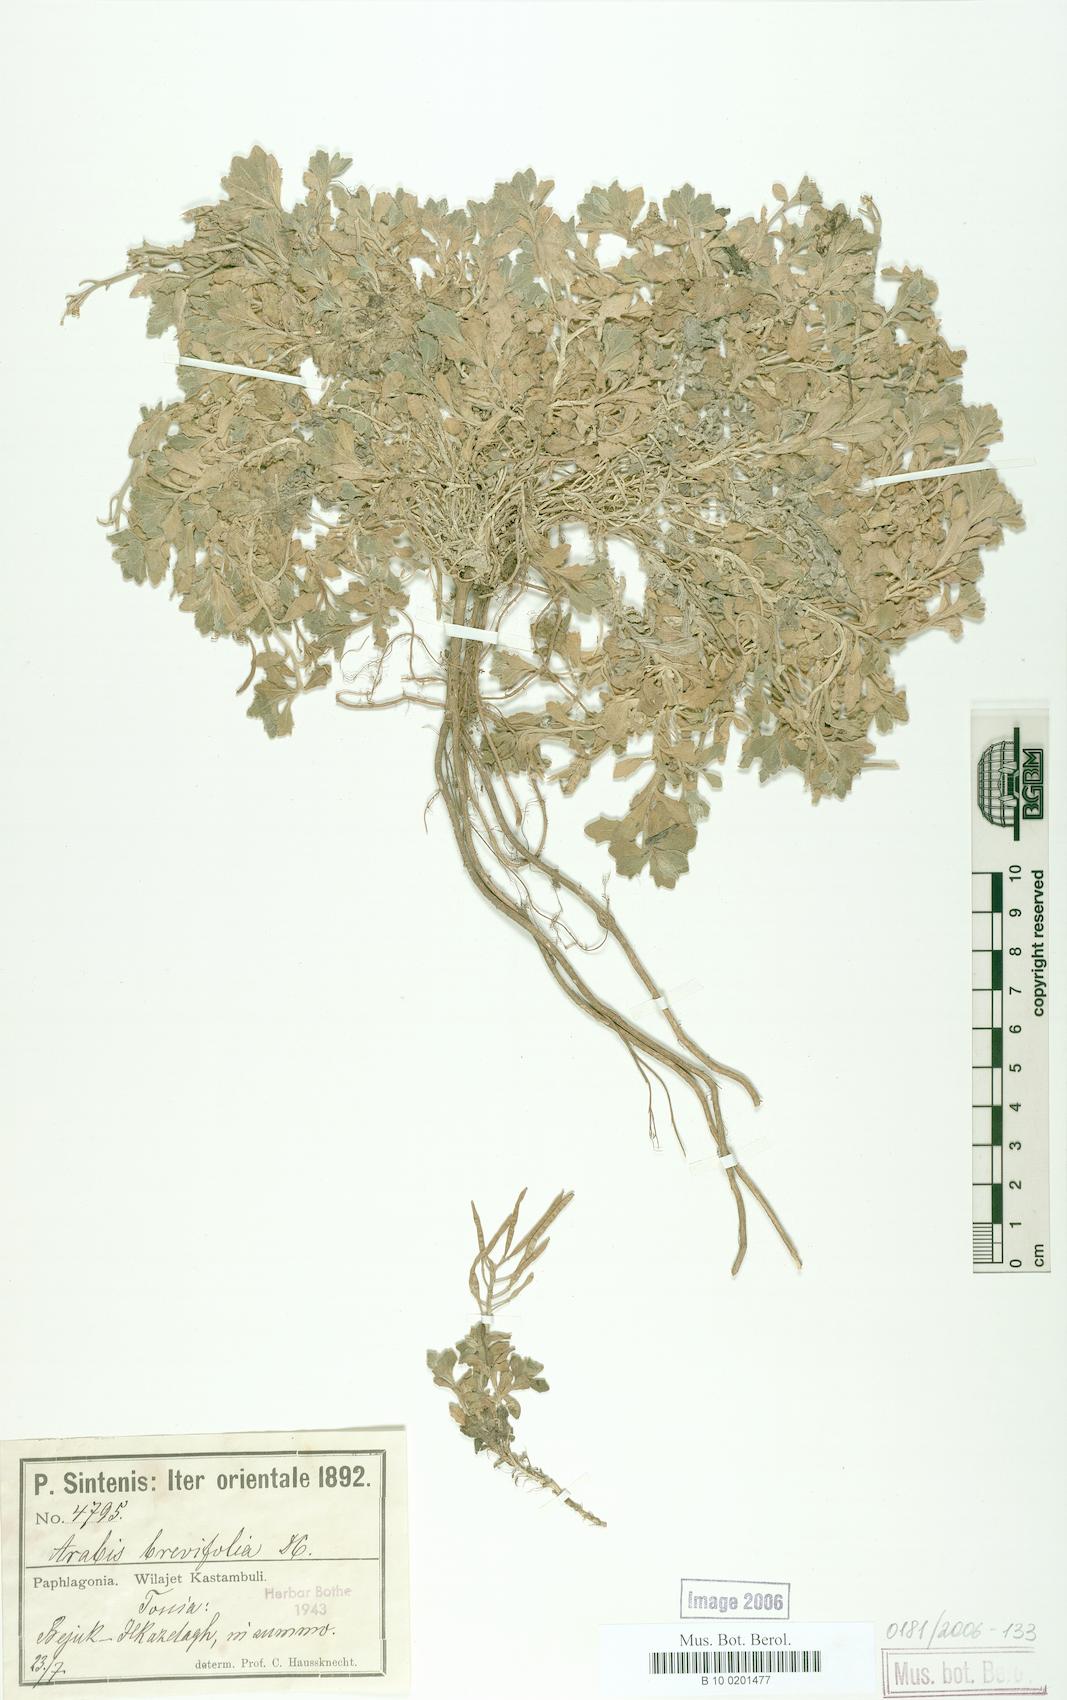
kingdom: Plantae
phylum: Tracheophyta
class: Magnoliopsida
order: Brassicales
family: Brassicaceae
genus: Arabis
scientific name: Arabis caucasica
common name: Gray rockcress
